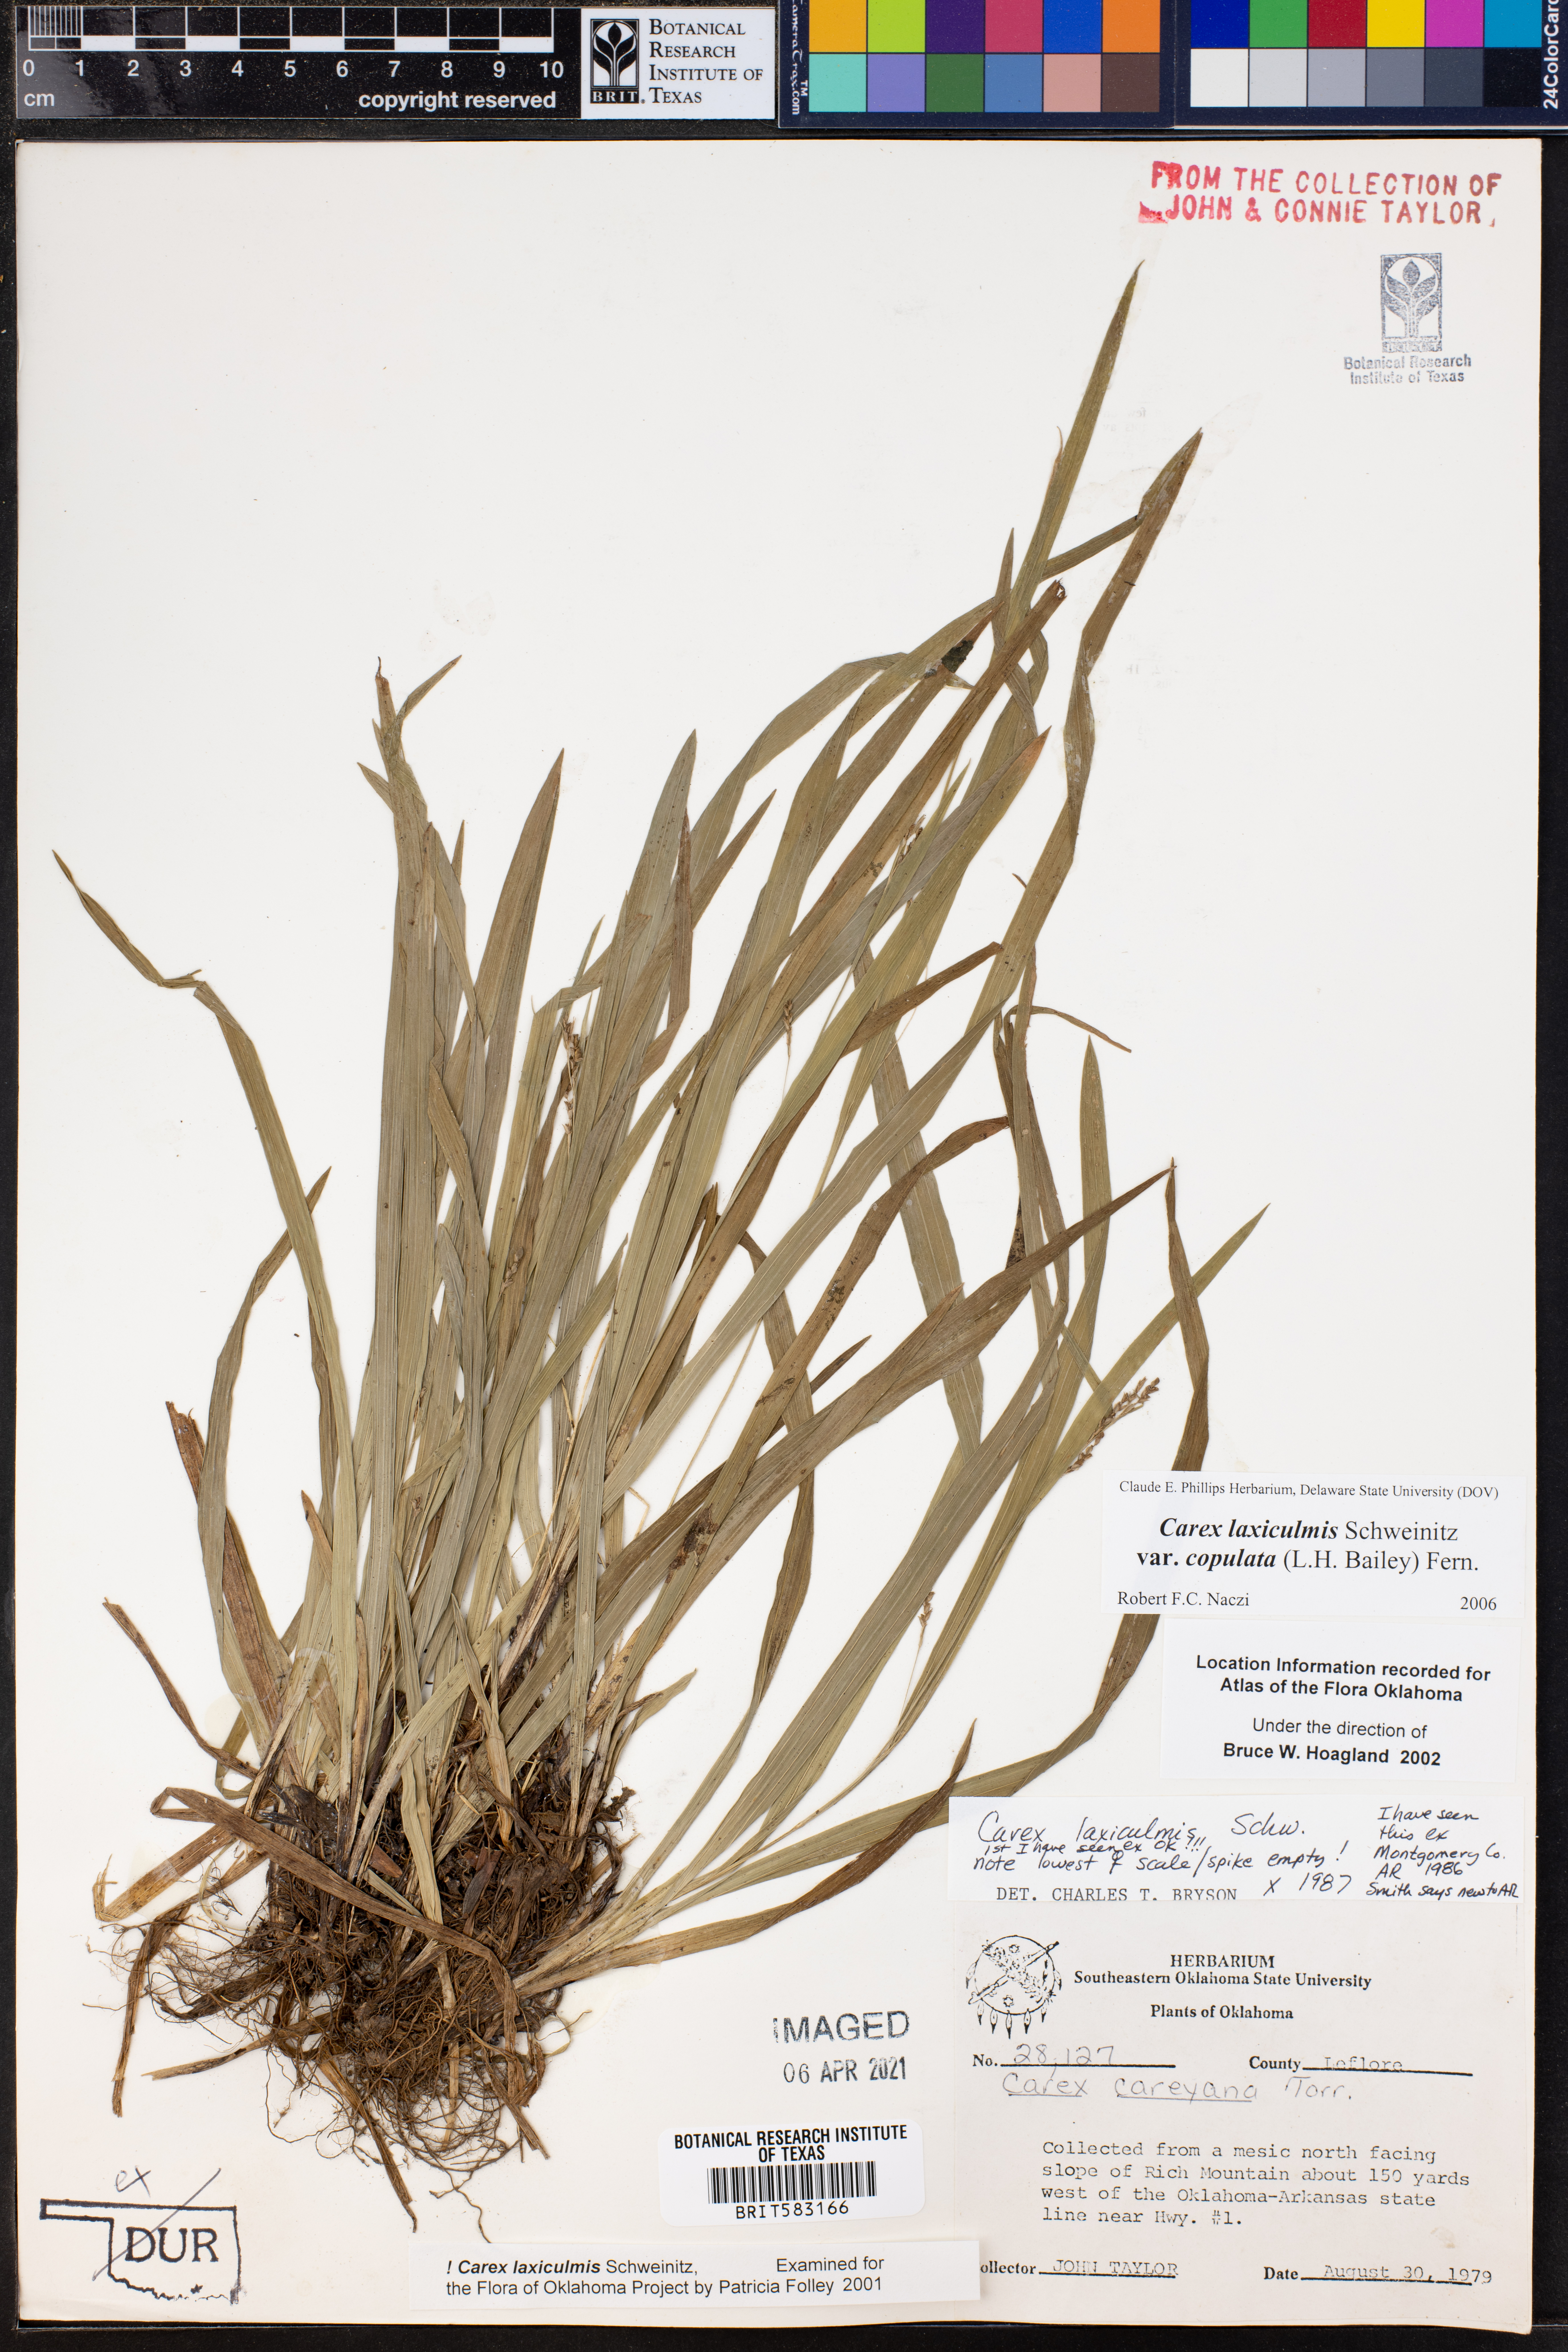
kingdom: Plantae
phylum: Tracheophyta
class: Liliopsida
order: Poales
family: Cyperaceae
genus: Carex
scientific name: Carex laxiculmis
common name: Spreading sedge
